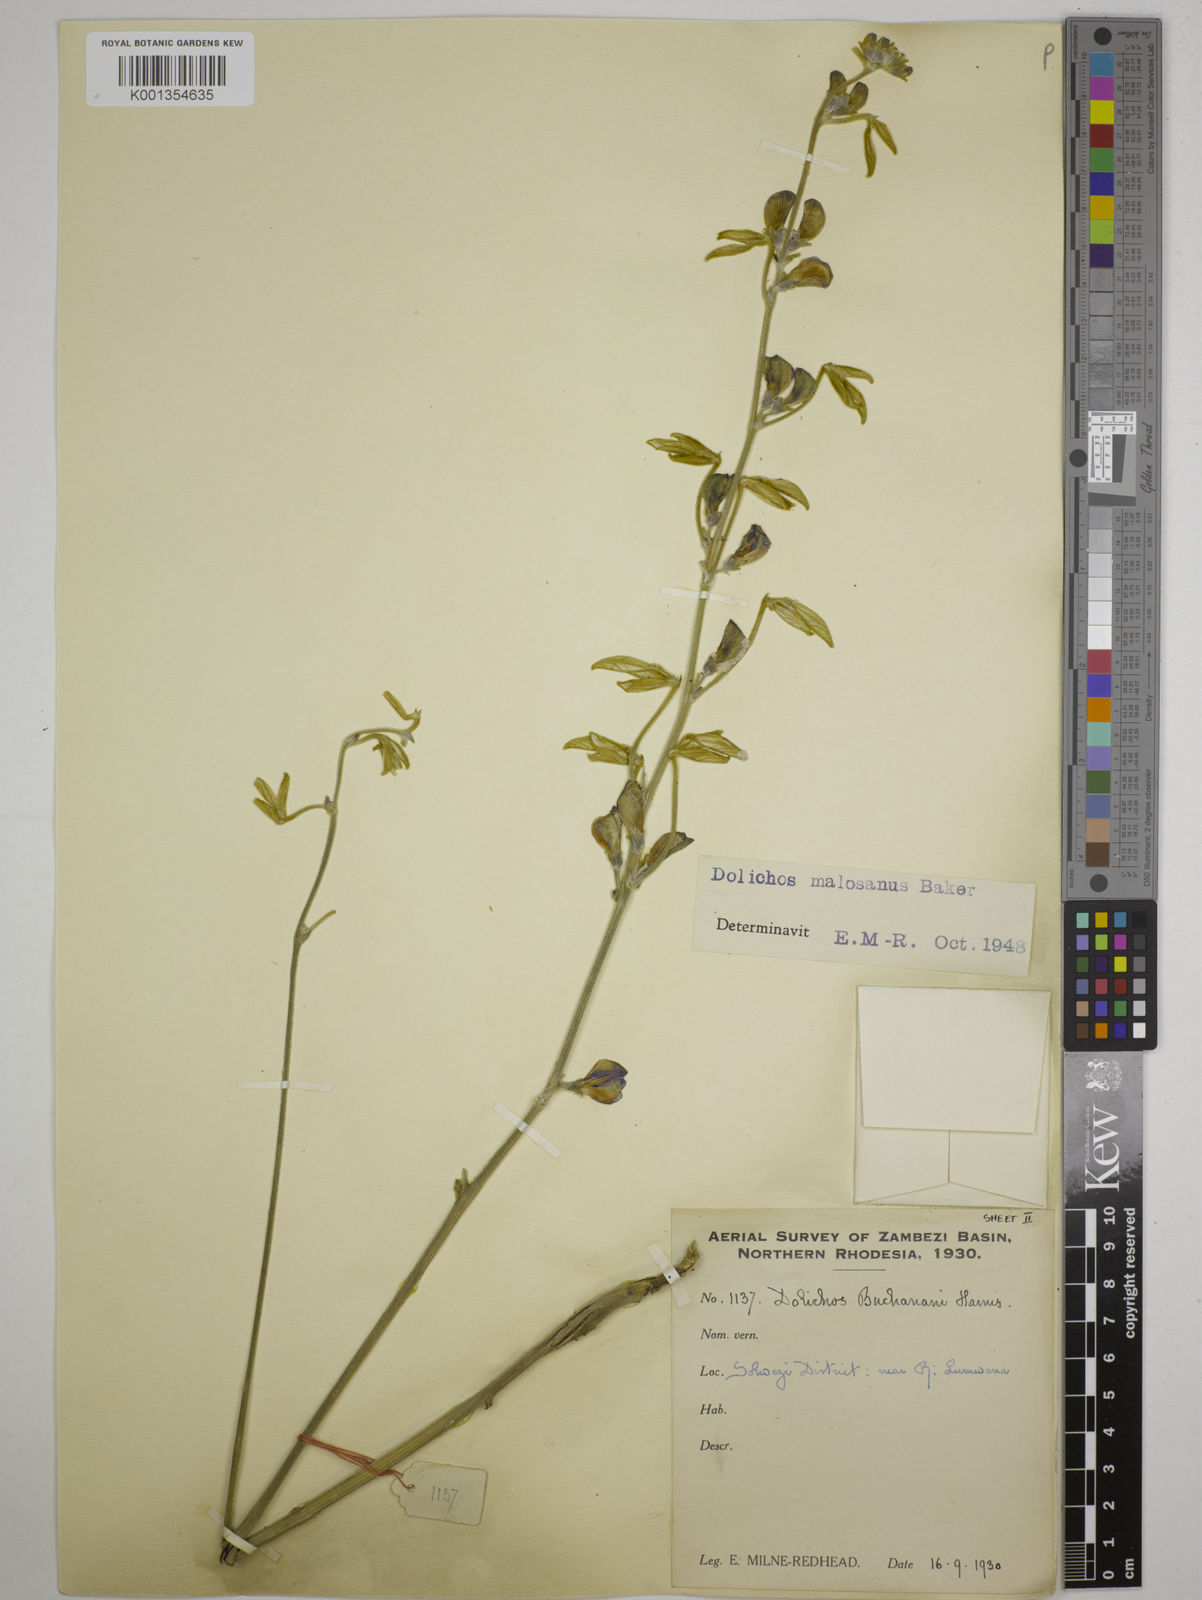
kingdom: Plantae
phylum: Tracheophyta
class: Magnoliopsida
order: Fabales
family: Fabaceae
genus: Dolichos
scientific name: Dolichos kilimandscharicus
